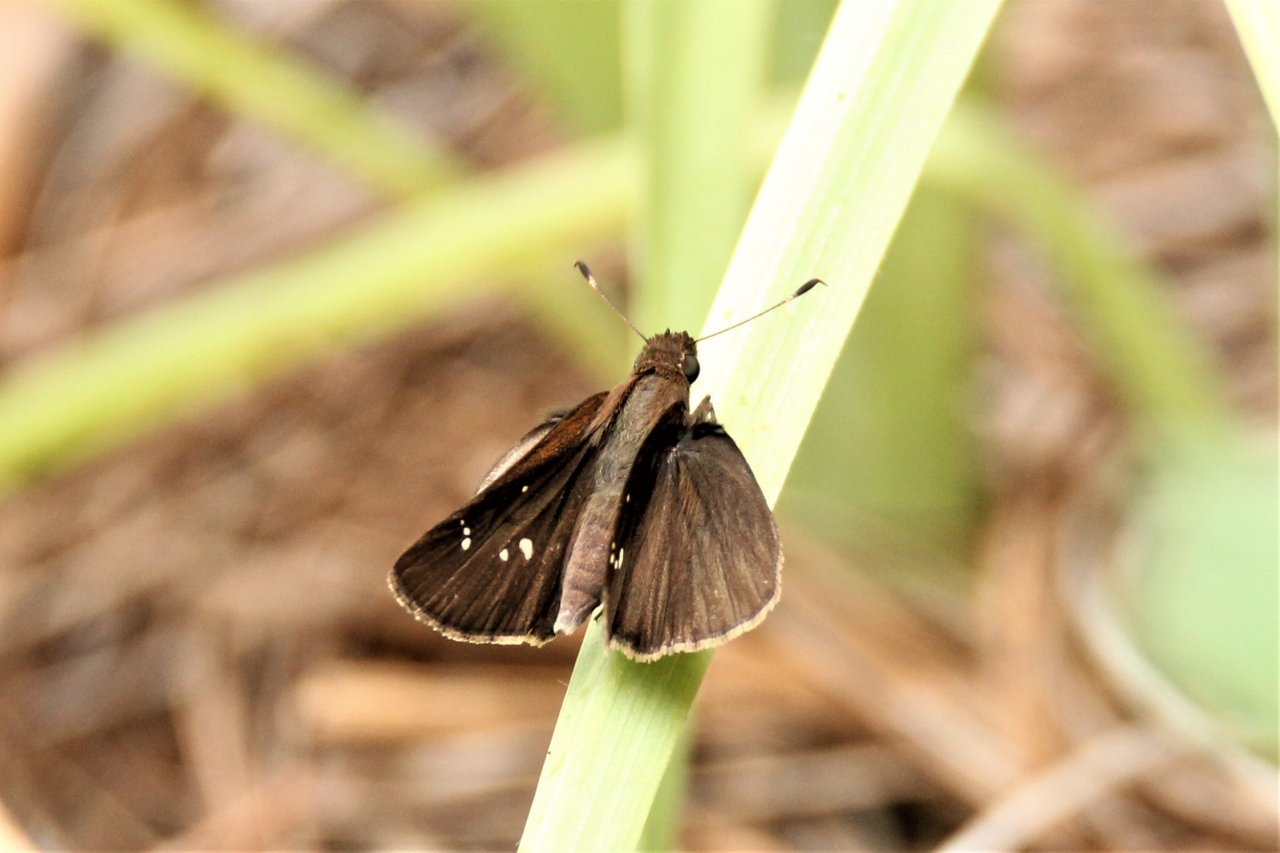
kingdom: Animalia
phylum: Arthropoda
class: Insecta
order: Lepidoptera
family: Hesperiidae
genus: Lerema
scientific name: Lerema accius
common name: Clouded Skipper
